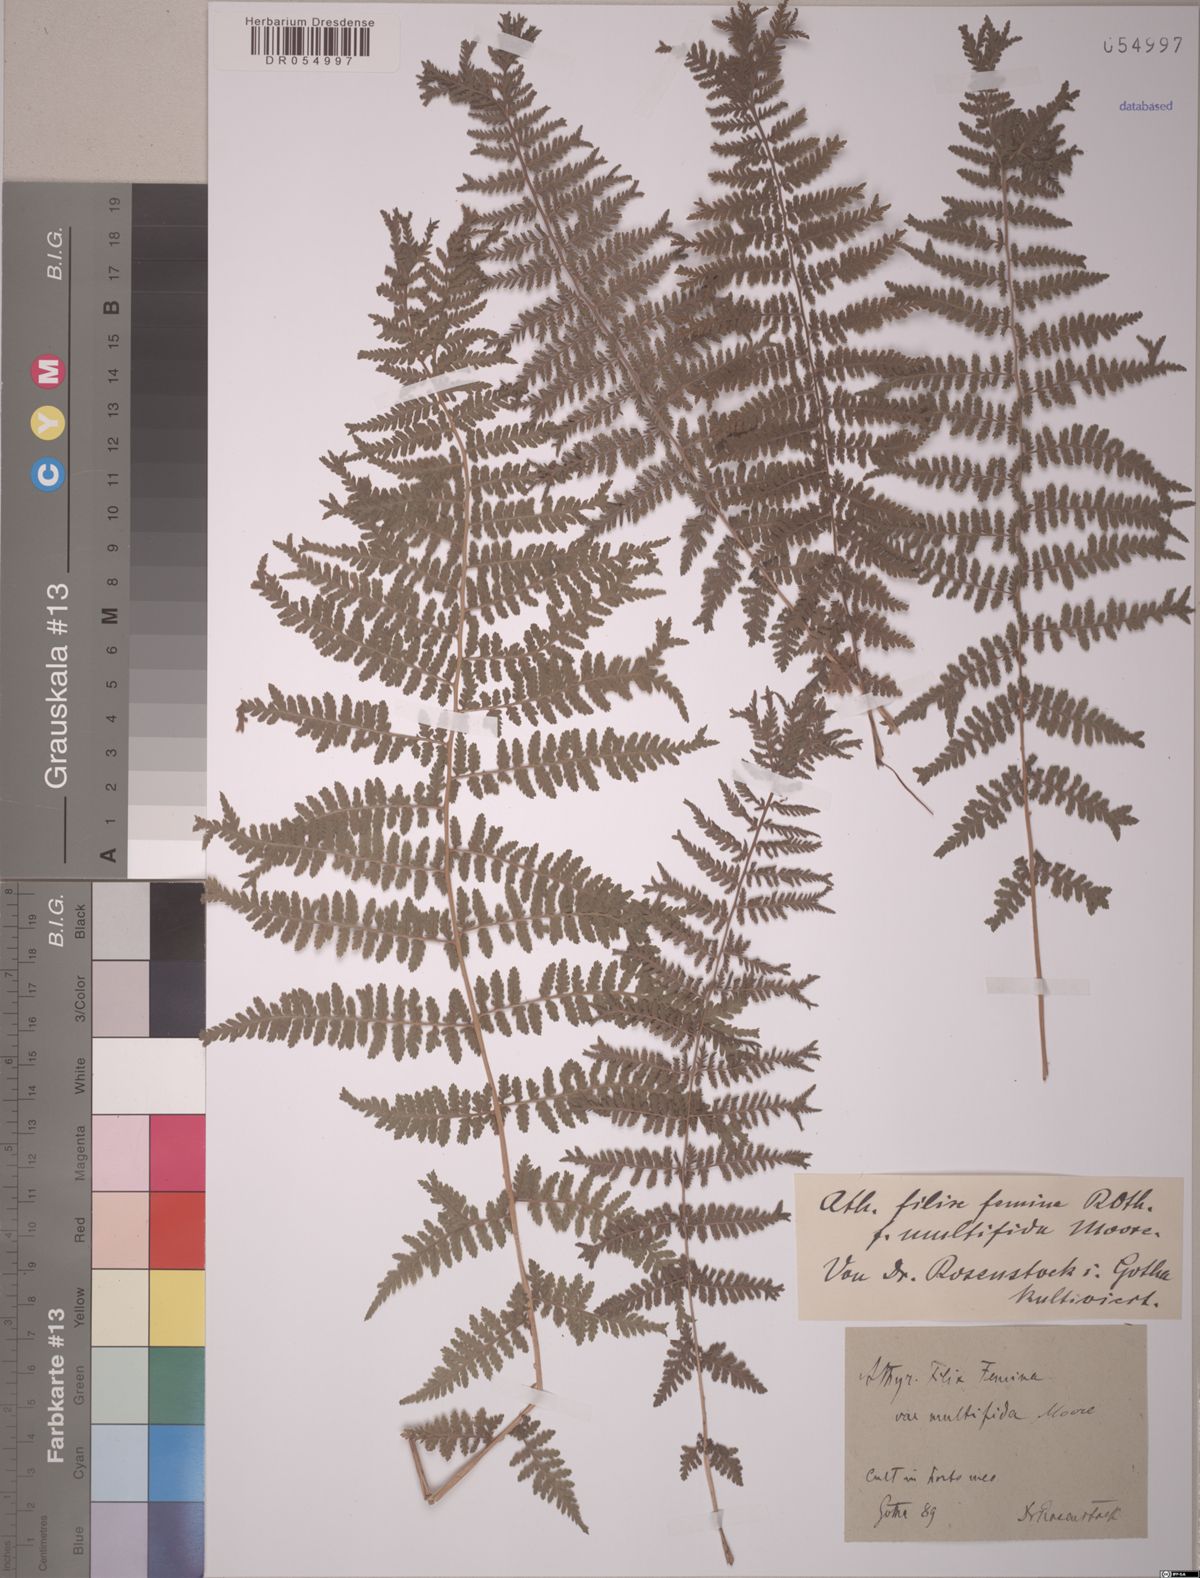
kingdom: Plantae
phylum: Tracheophyta
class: Polypodiopsida
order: Polypodiales
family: Athyriaceae
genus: Athyrium
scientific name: Athyrium filix-femina
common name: Lady fern
